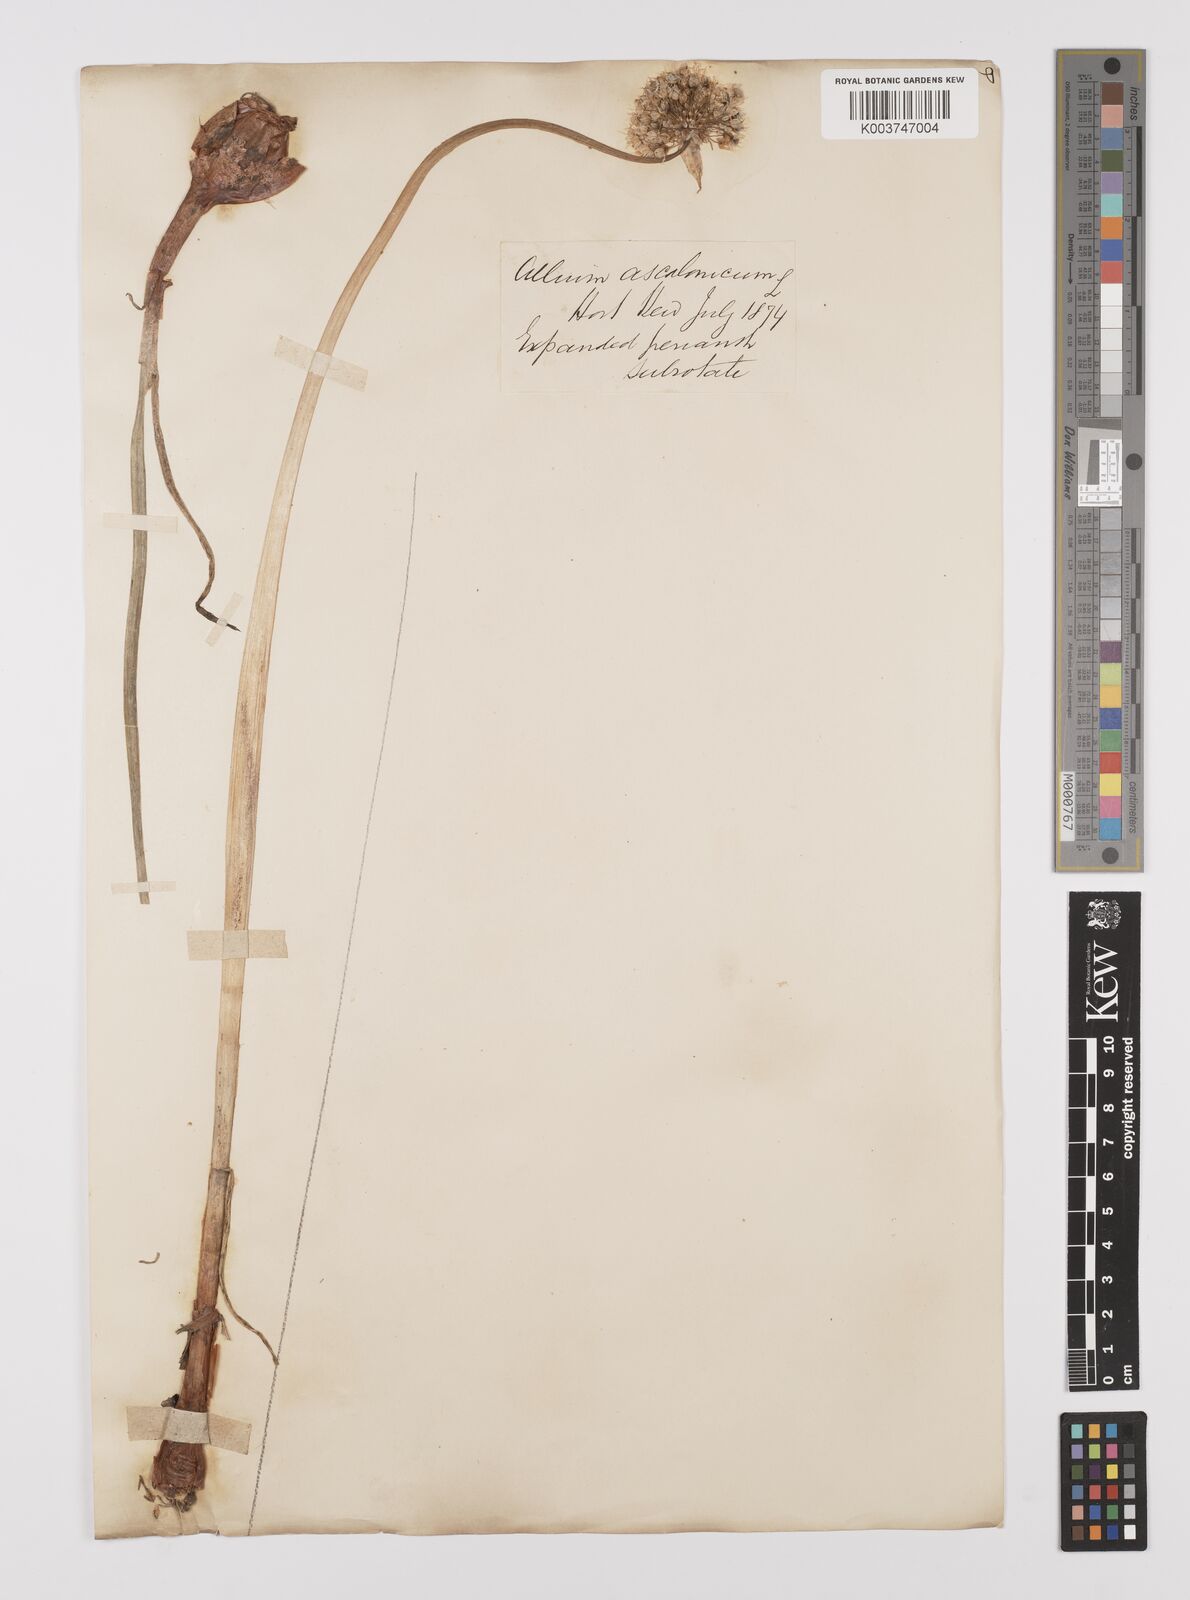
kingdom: Plantae
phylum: Tracheophyta
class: Liliopsida
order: Asparagales
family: Amaryllidaceae
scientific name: Amaryllidaceae
